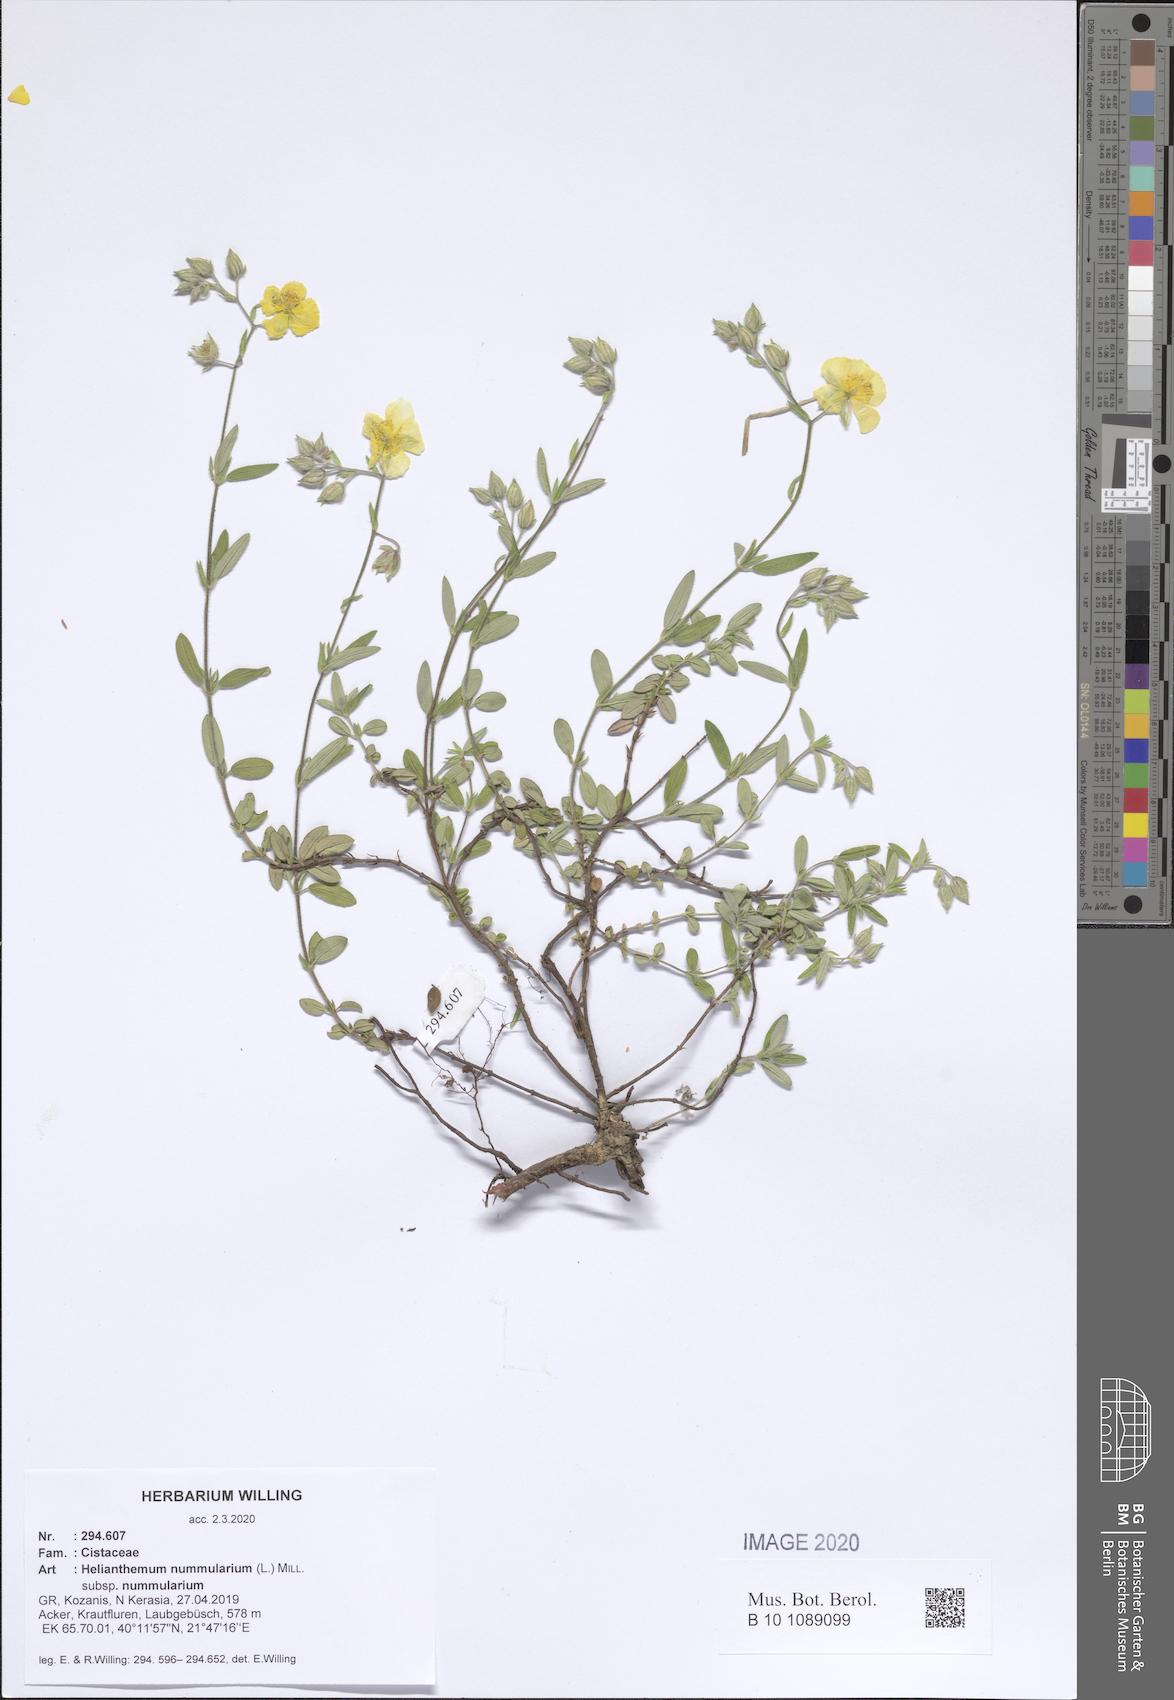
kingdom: Plantae
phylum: Tracheophyta
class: Magnoliopsida
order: Malvales
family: Cistaceae
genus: Helianthemum
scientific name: Helianthemum nummularium
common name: Common rock-rose
